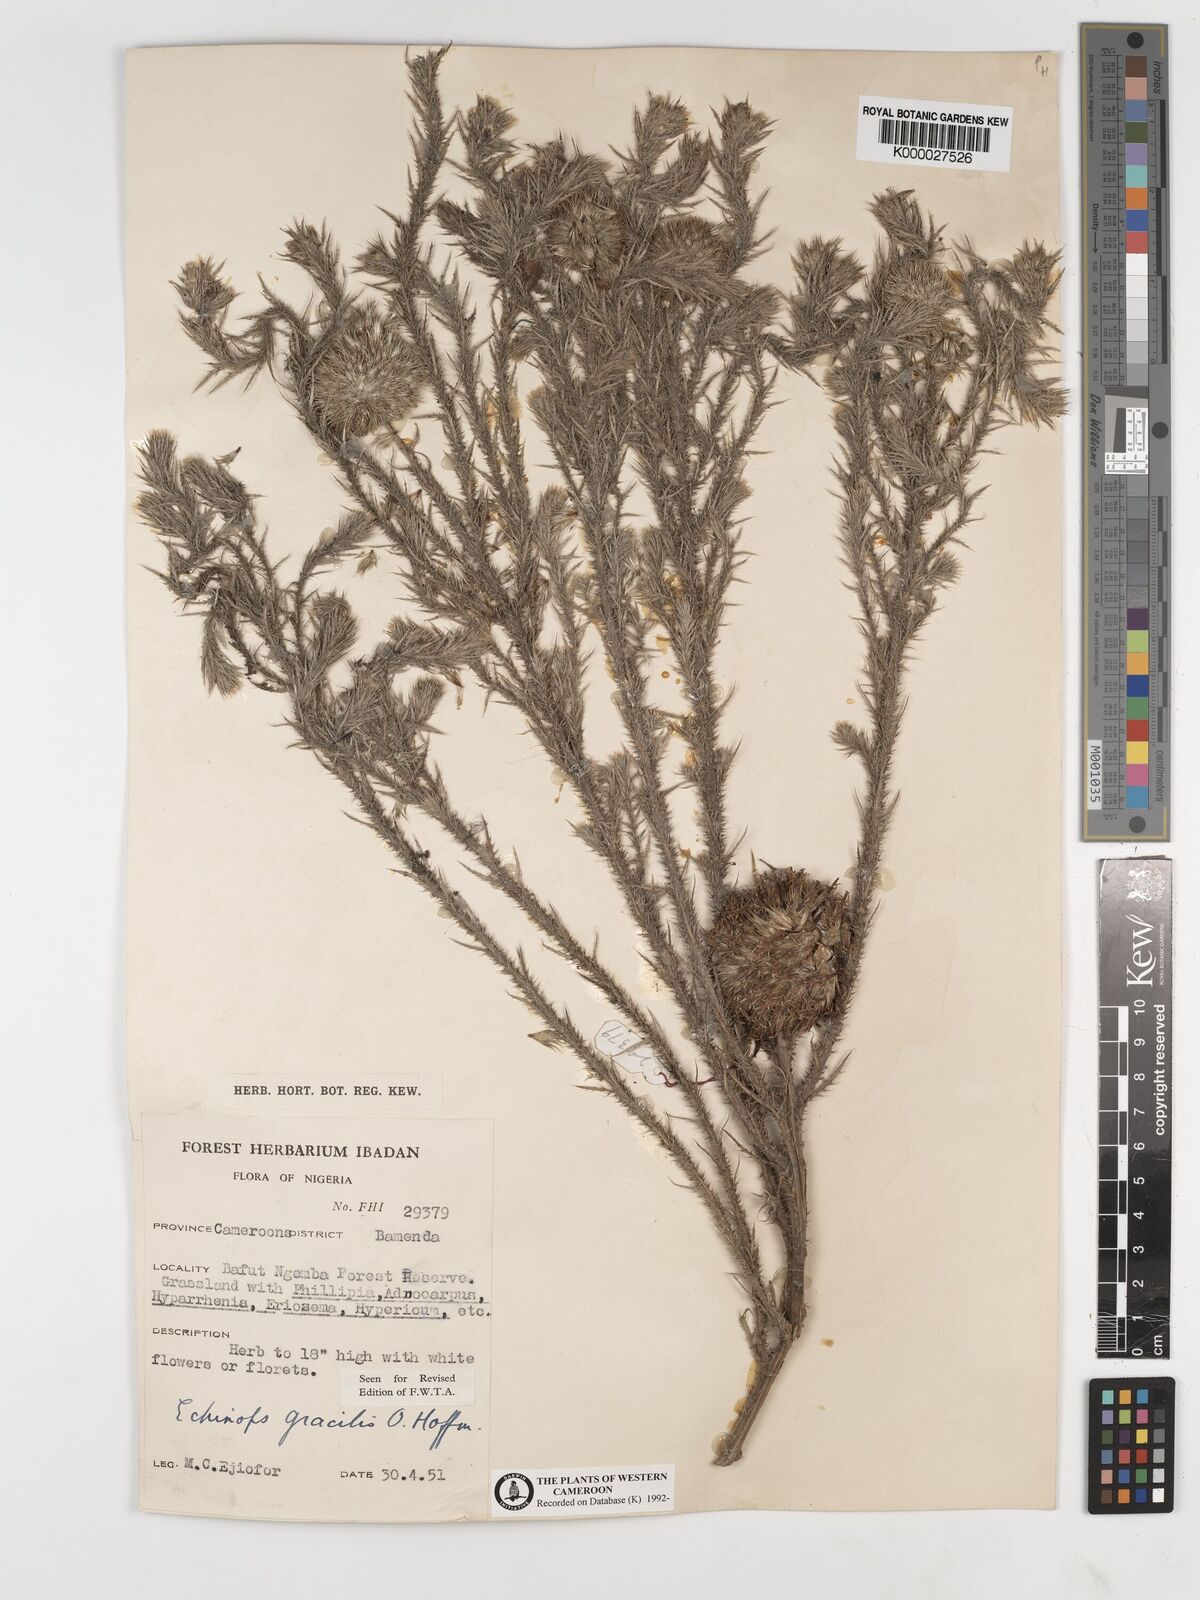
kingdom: Plantae
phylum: Tracheophyta
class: Magnoliopsida
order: Asterales
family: Asteraceae
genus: Echinops
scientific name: Echinops gracilis
